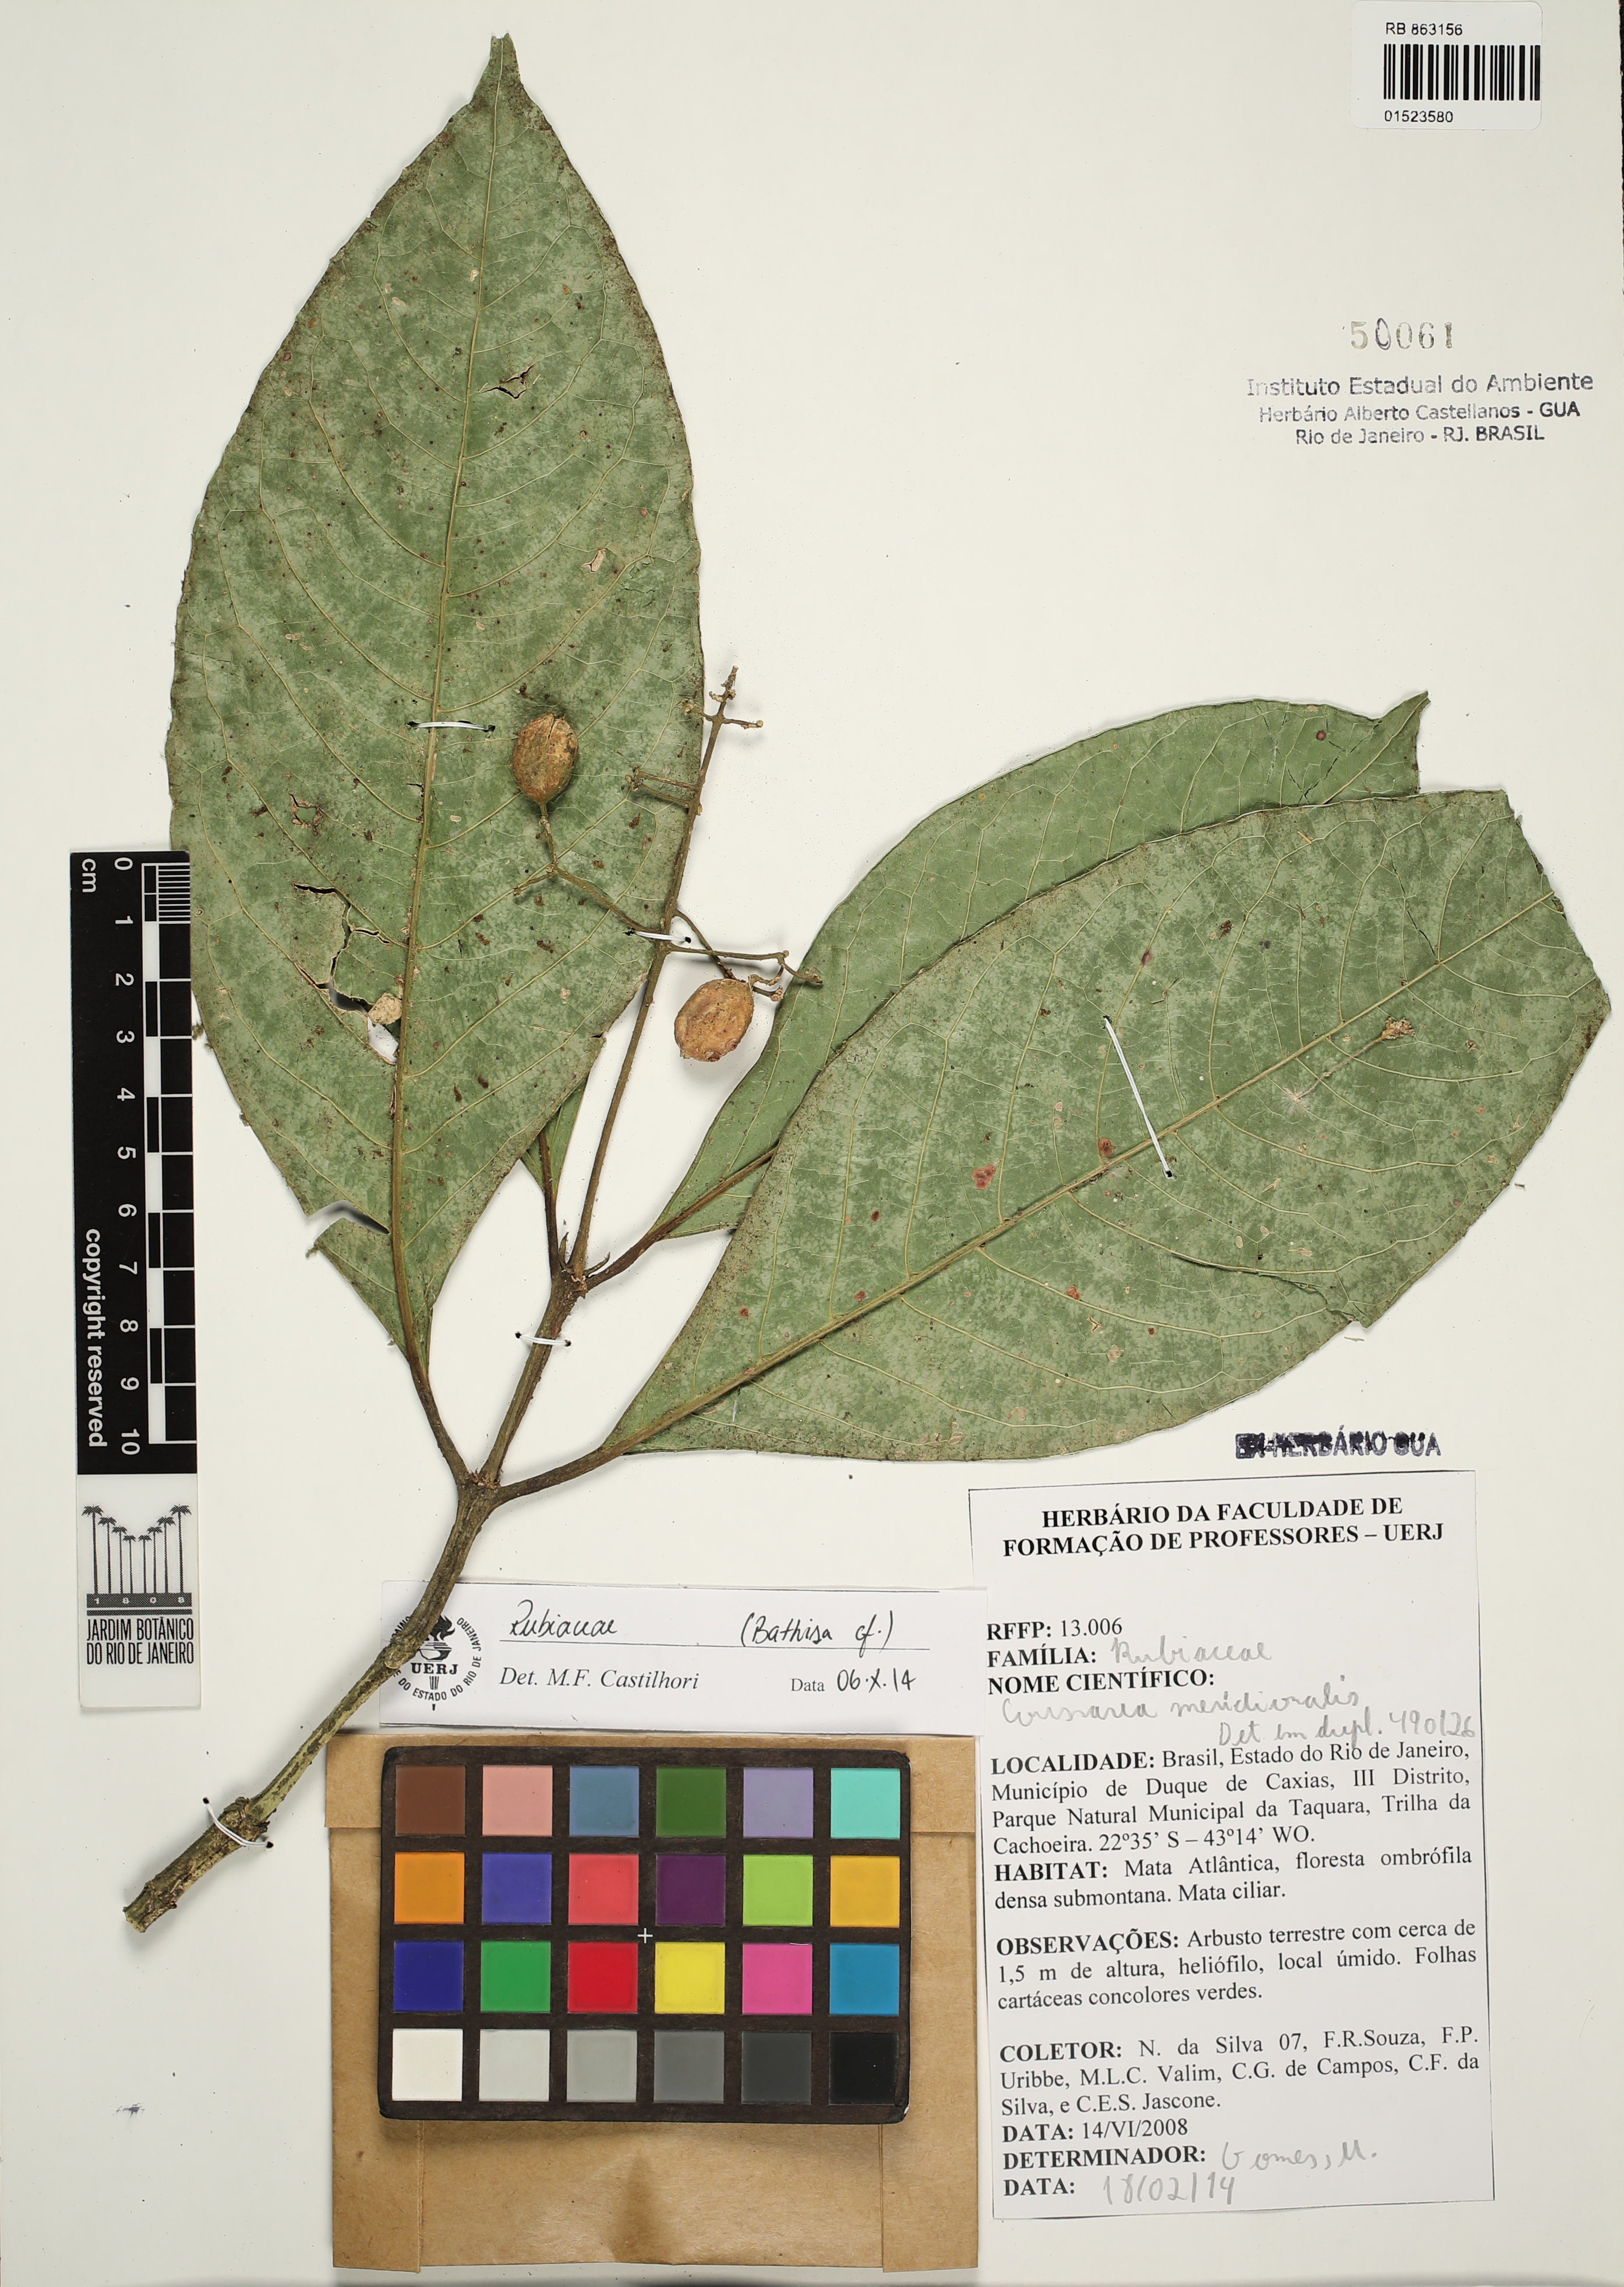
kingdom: Plantae
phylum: Tracheophyta
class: Magnoliopsida
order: Gentianales
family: Rubiaceae
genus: Coussarea
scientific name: Coussarea meridionalis
